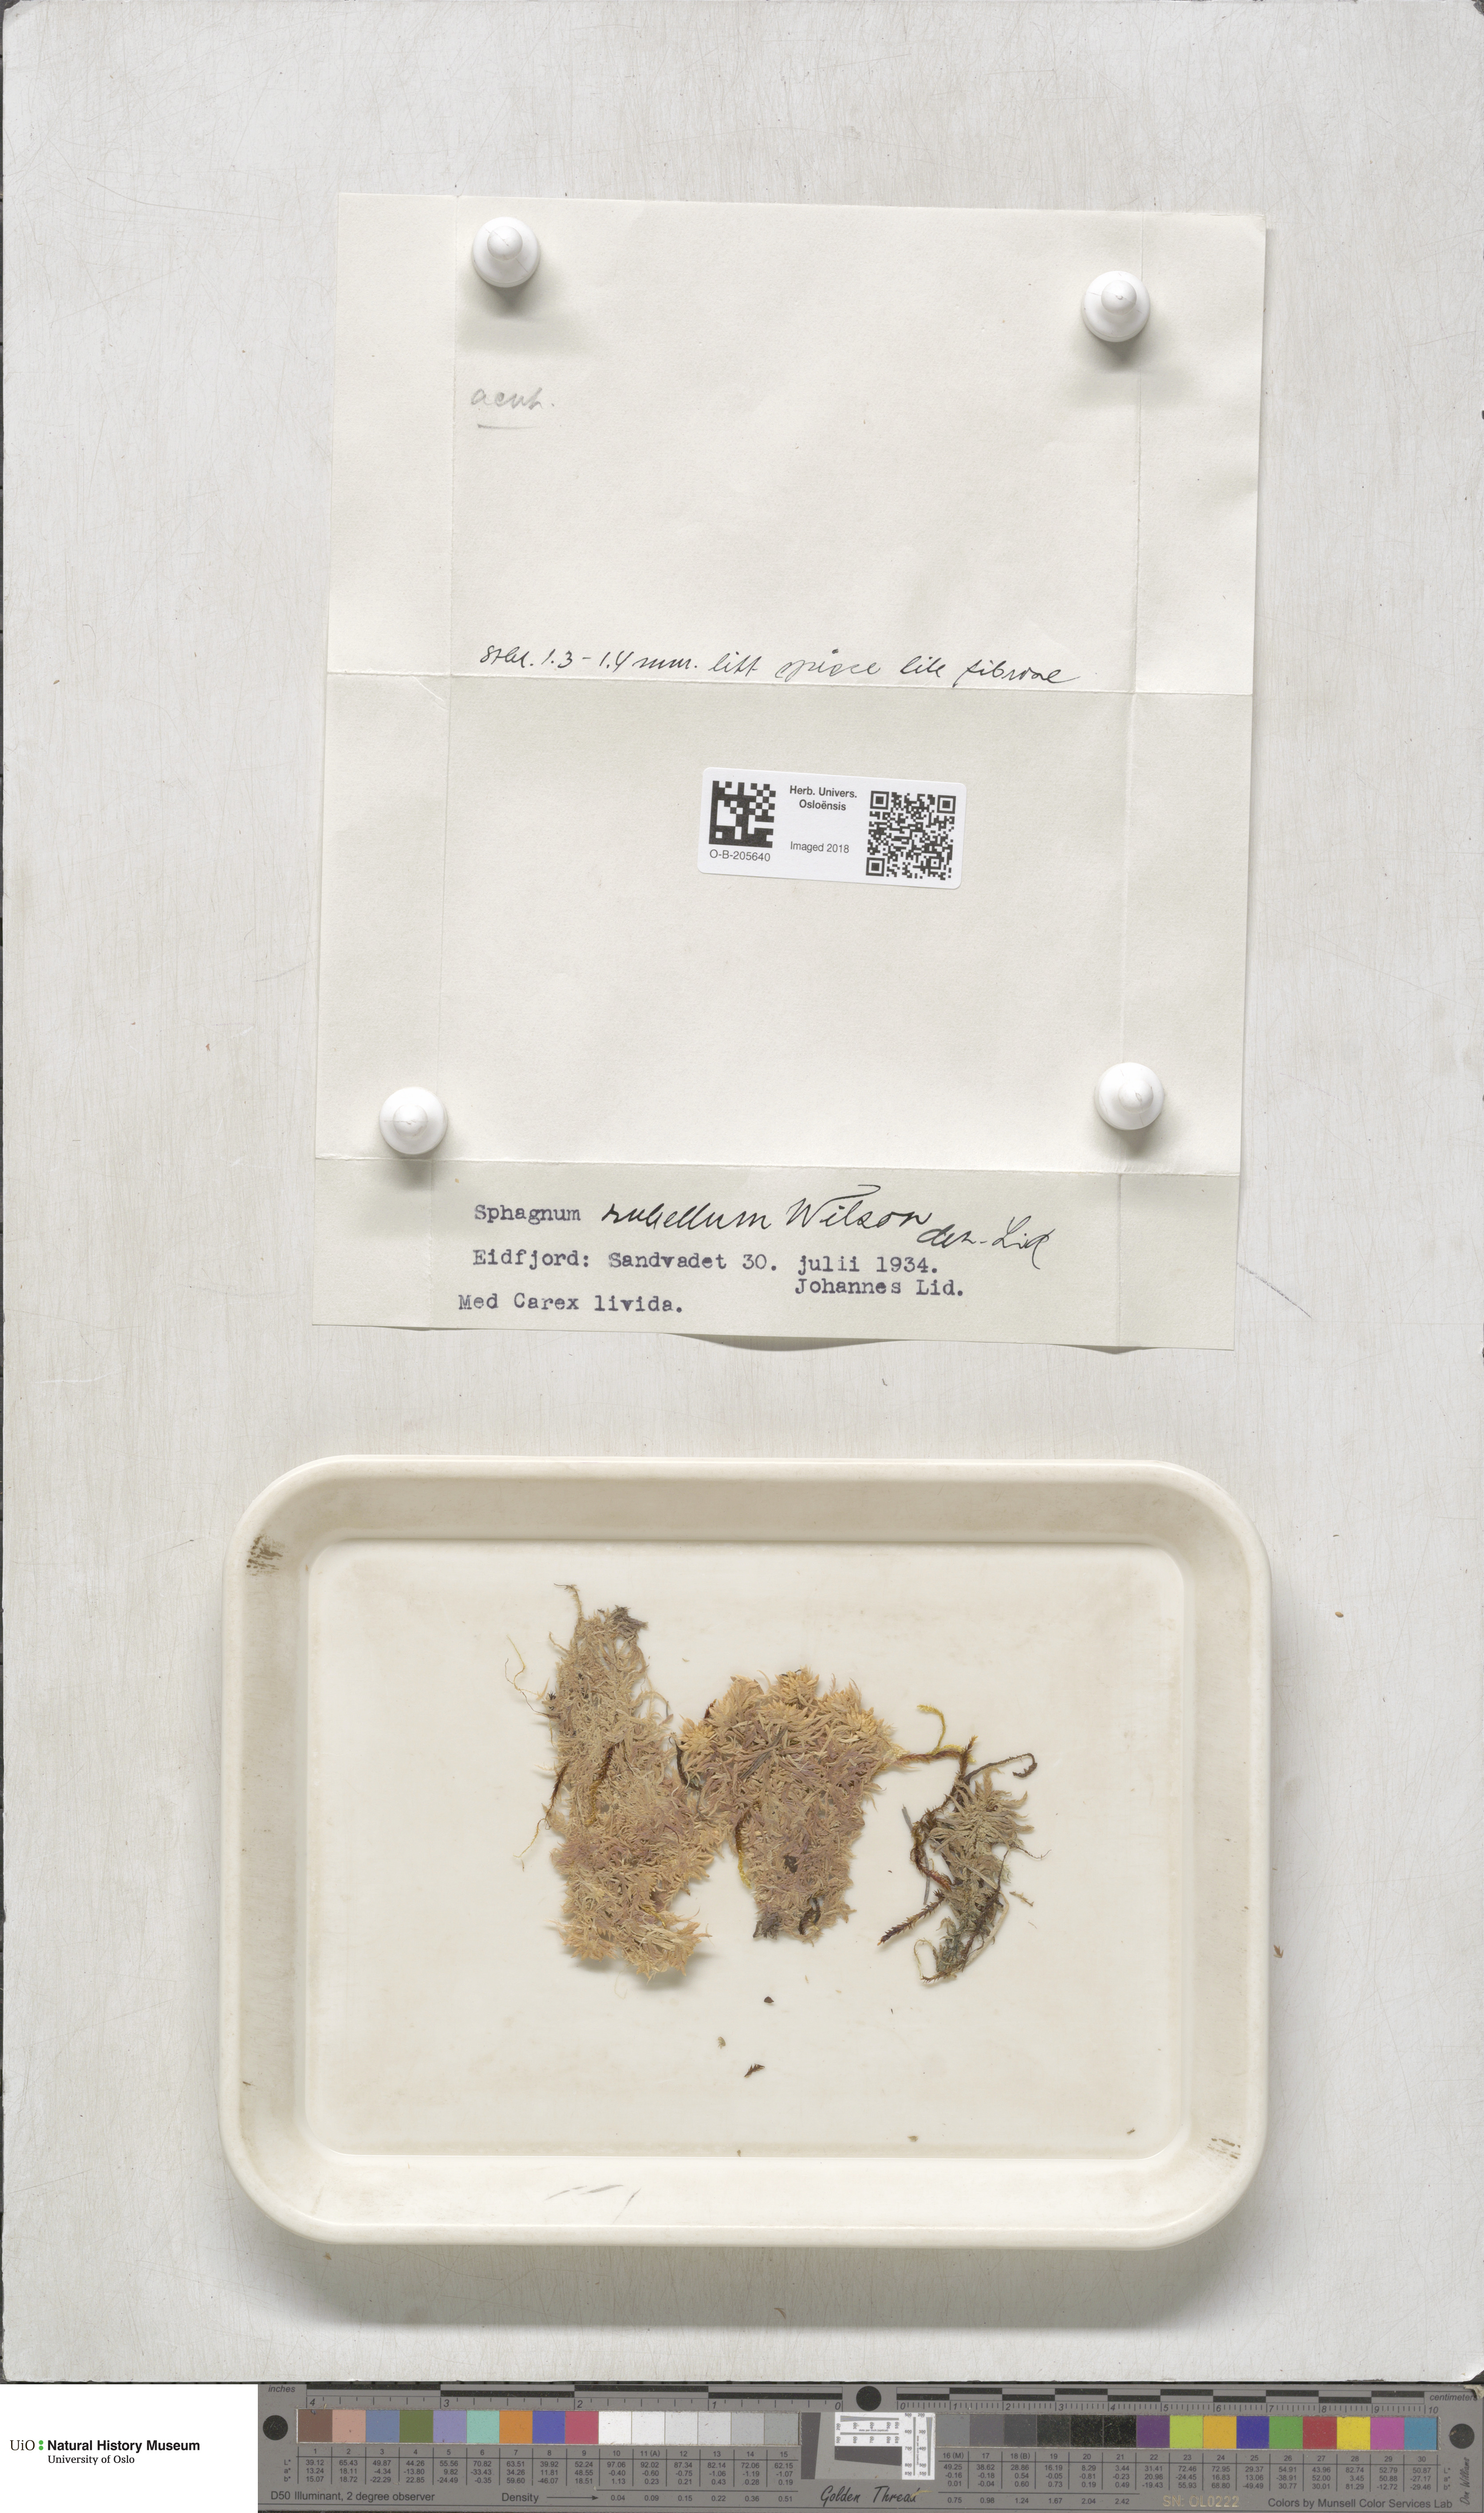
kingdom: Plantae
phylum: Bryophyta
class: Sphagnopsida
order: Sphagnales
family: Sphagnaceae
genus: Sphagnum
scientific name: Sphagnum rubellum
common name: Red peat moss
